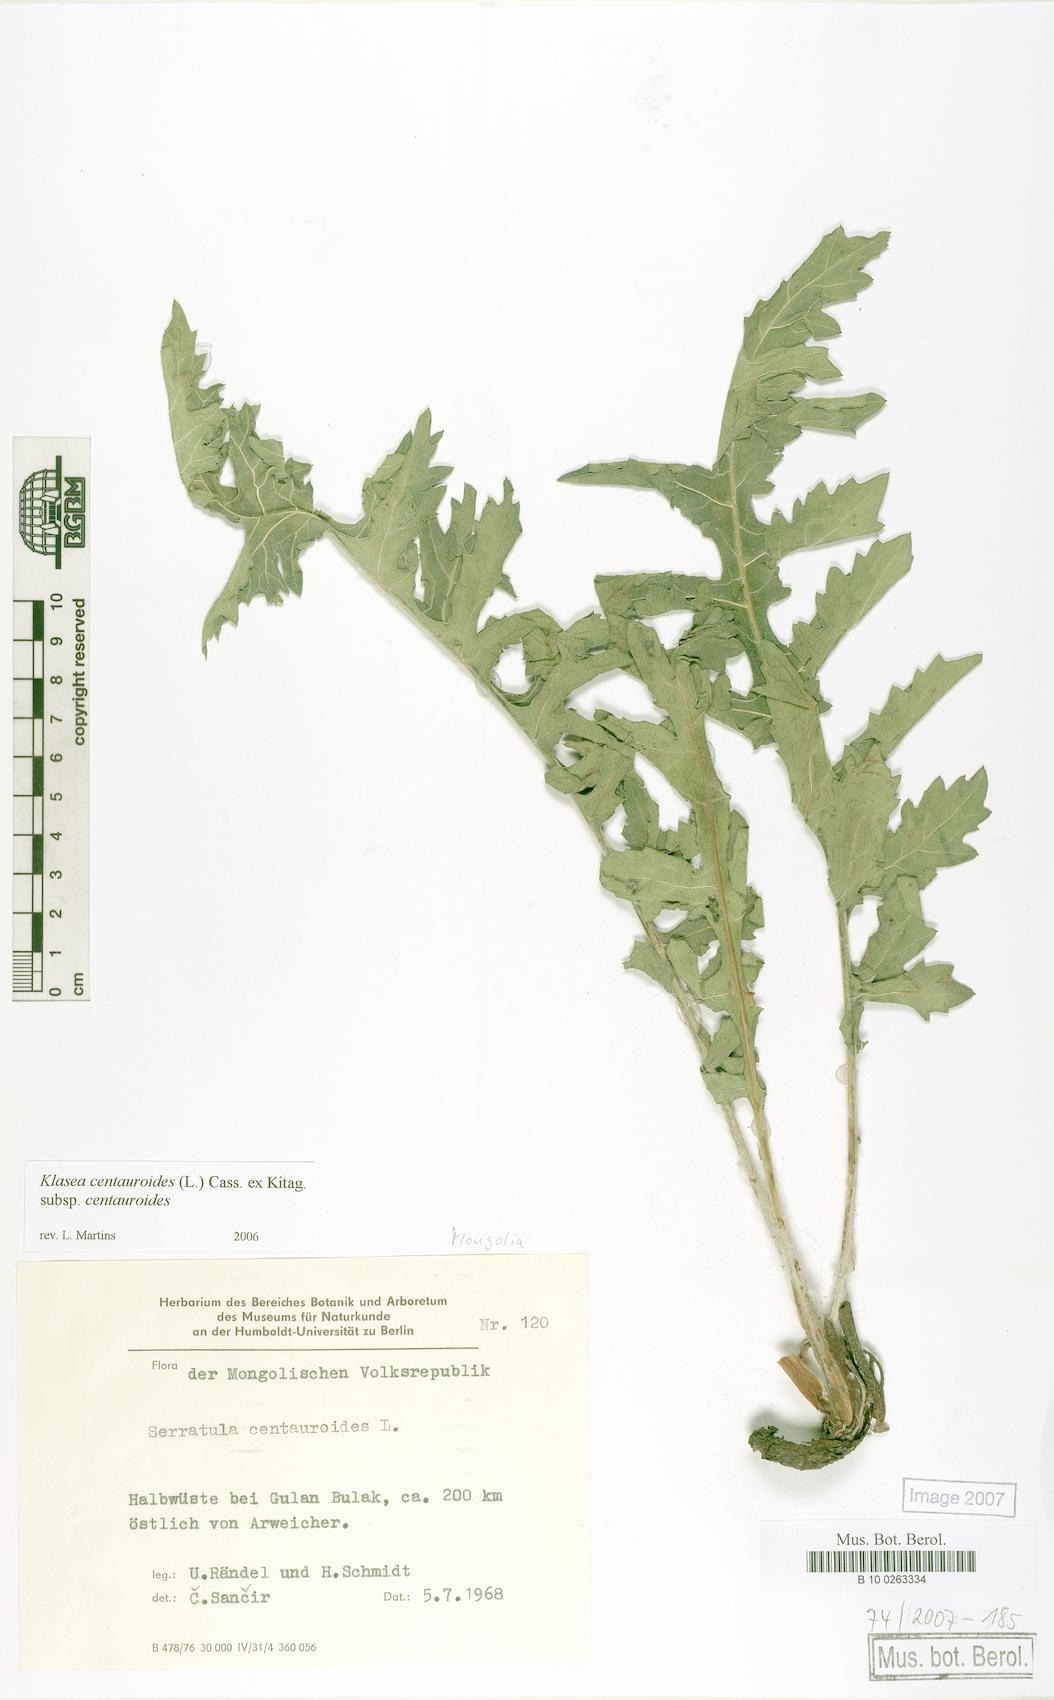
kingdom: Plantae
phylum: Tracheophyta
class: Magnoliopsida
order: Asterales
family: Asteraceae
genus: Klasea
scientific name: Klasea centauroides
